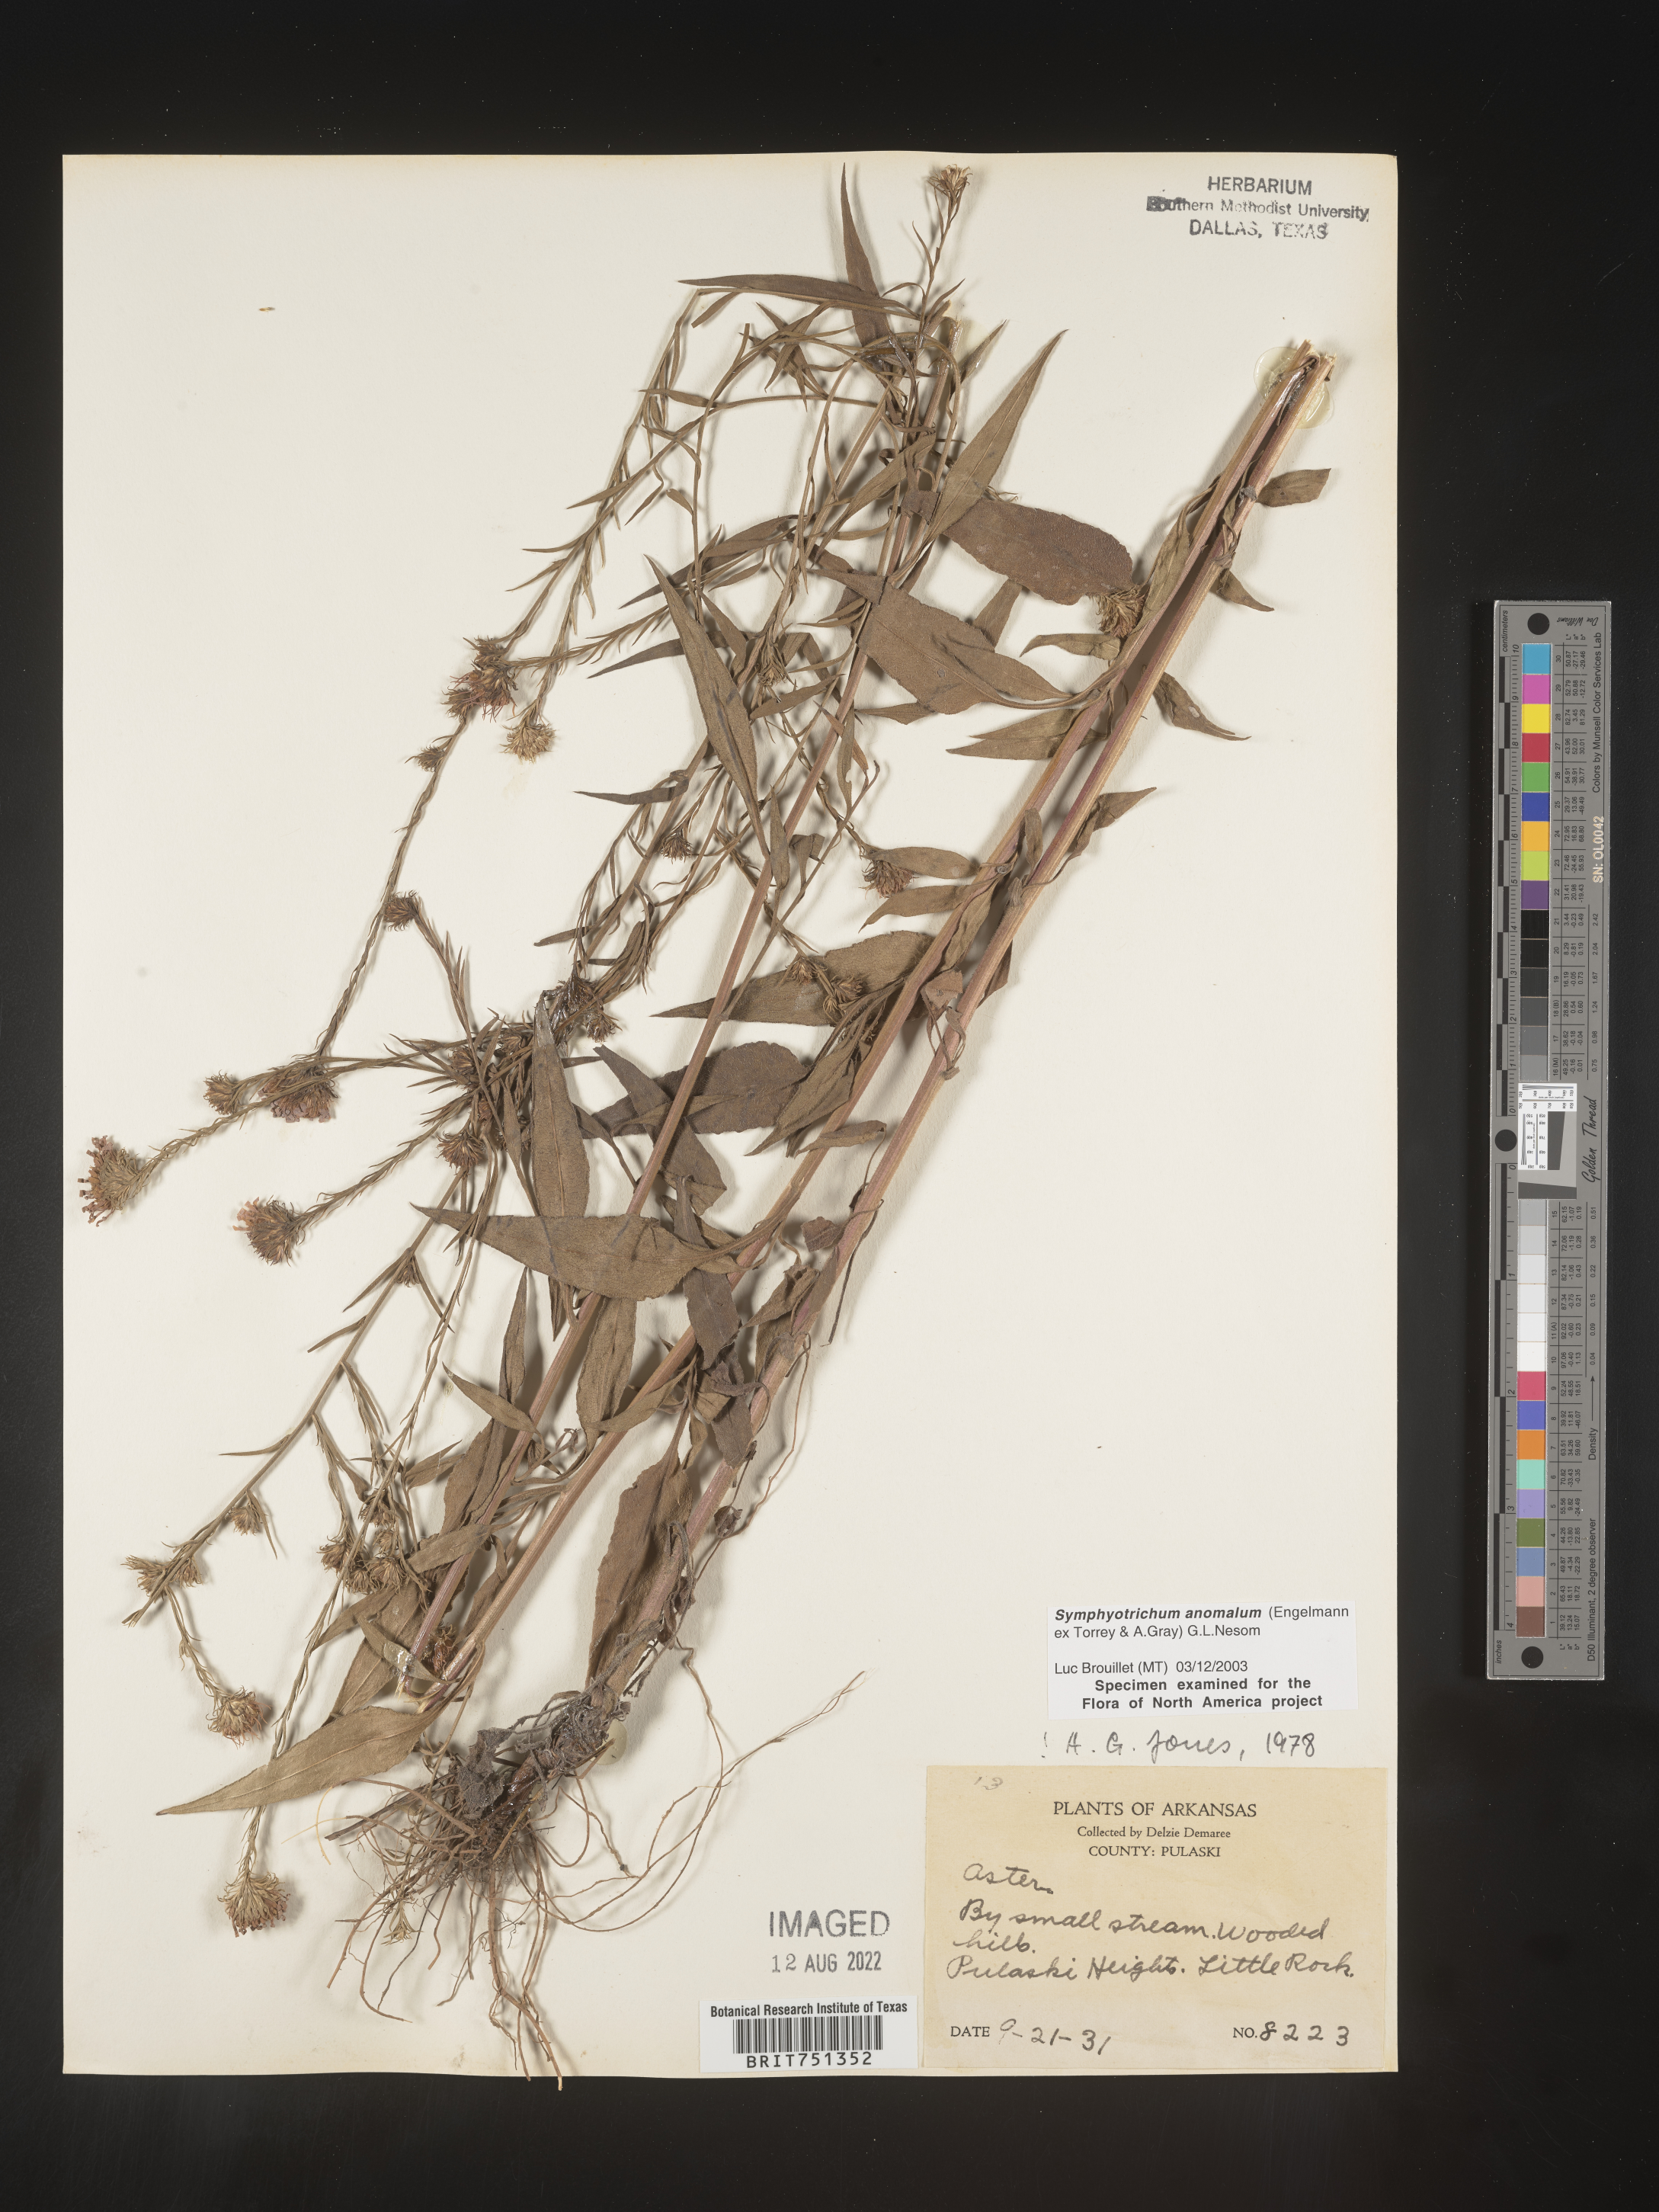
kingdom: Plantae
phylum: Tracheophyta
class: Magnoliopsida
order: Asterales
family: Asteraceae
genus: Symphyotrichum
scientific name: Symphyotrichum anomalum
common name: Many-ray aster
